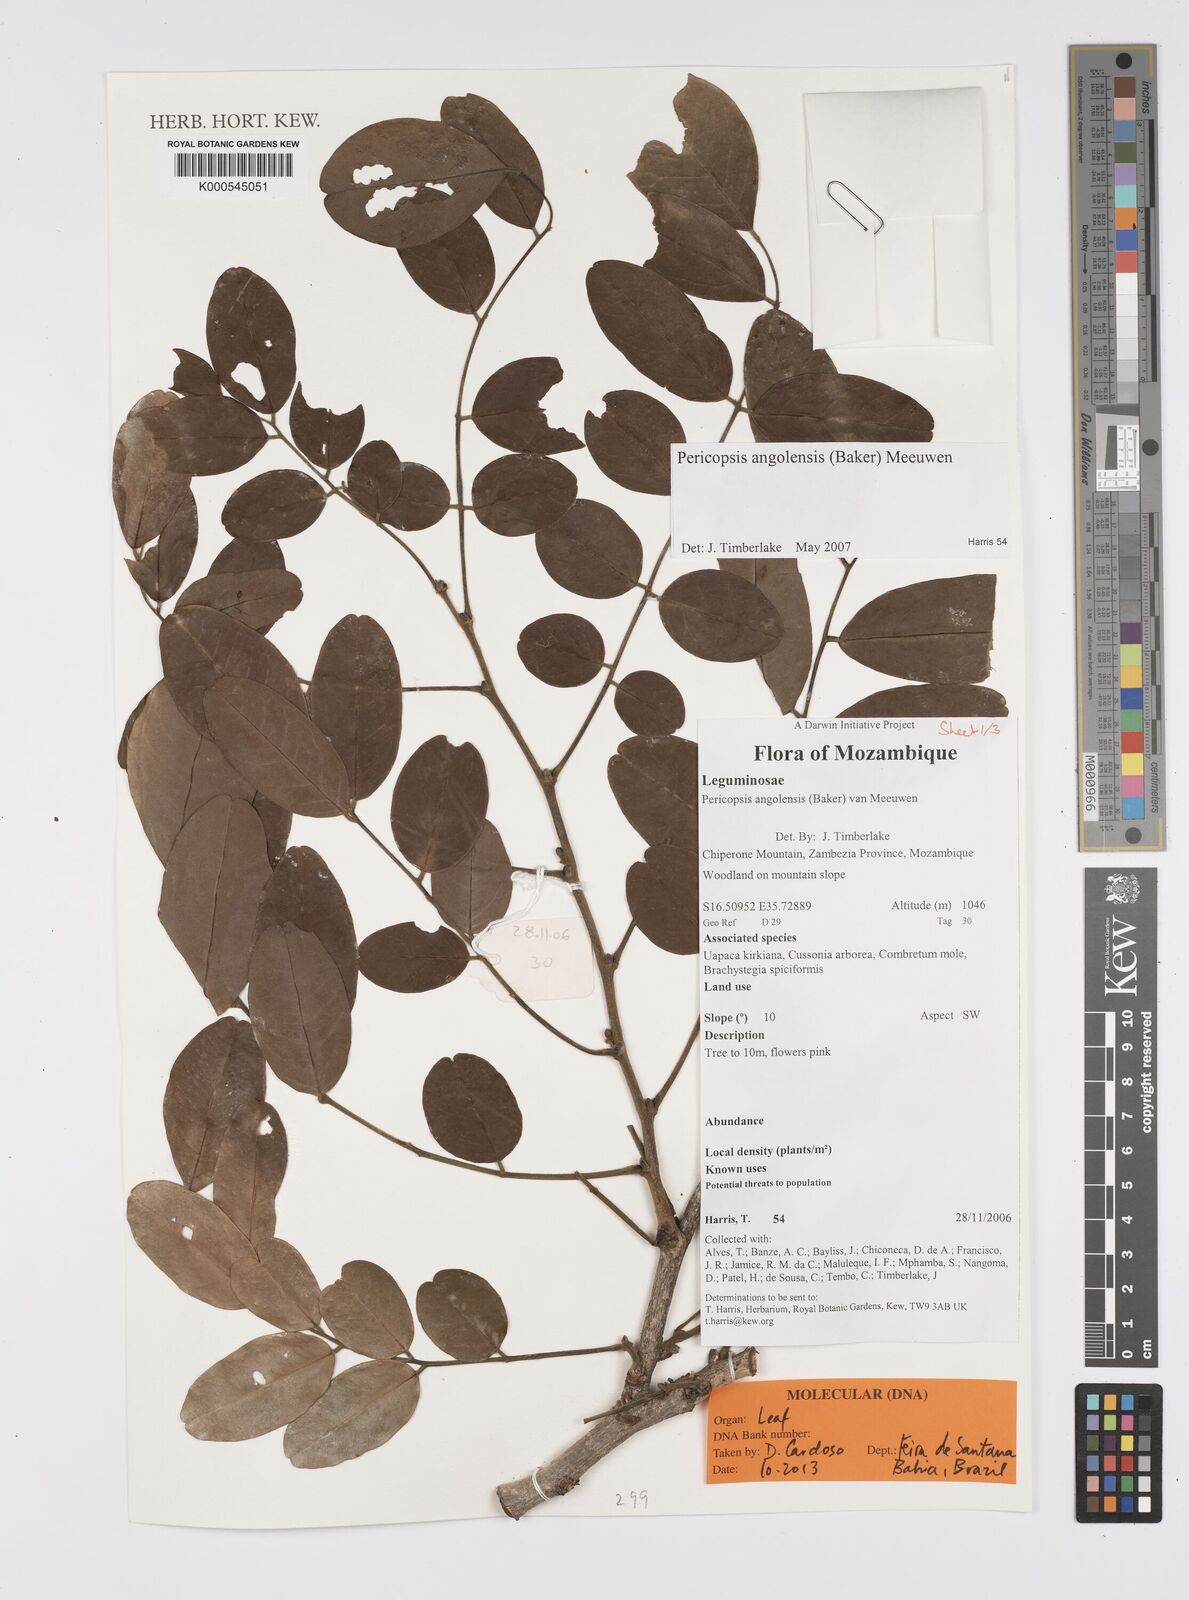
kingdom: Plantae
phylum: Tracheophyta
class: Magnoliopsida
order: Fabales
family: Fabaceae
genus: Pericopsis
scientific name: Pericopsis angolensis
